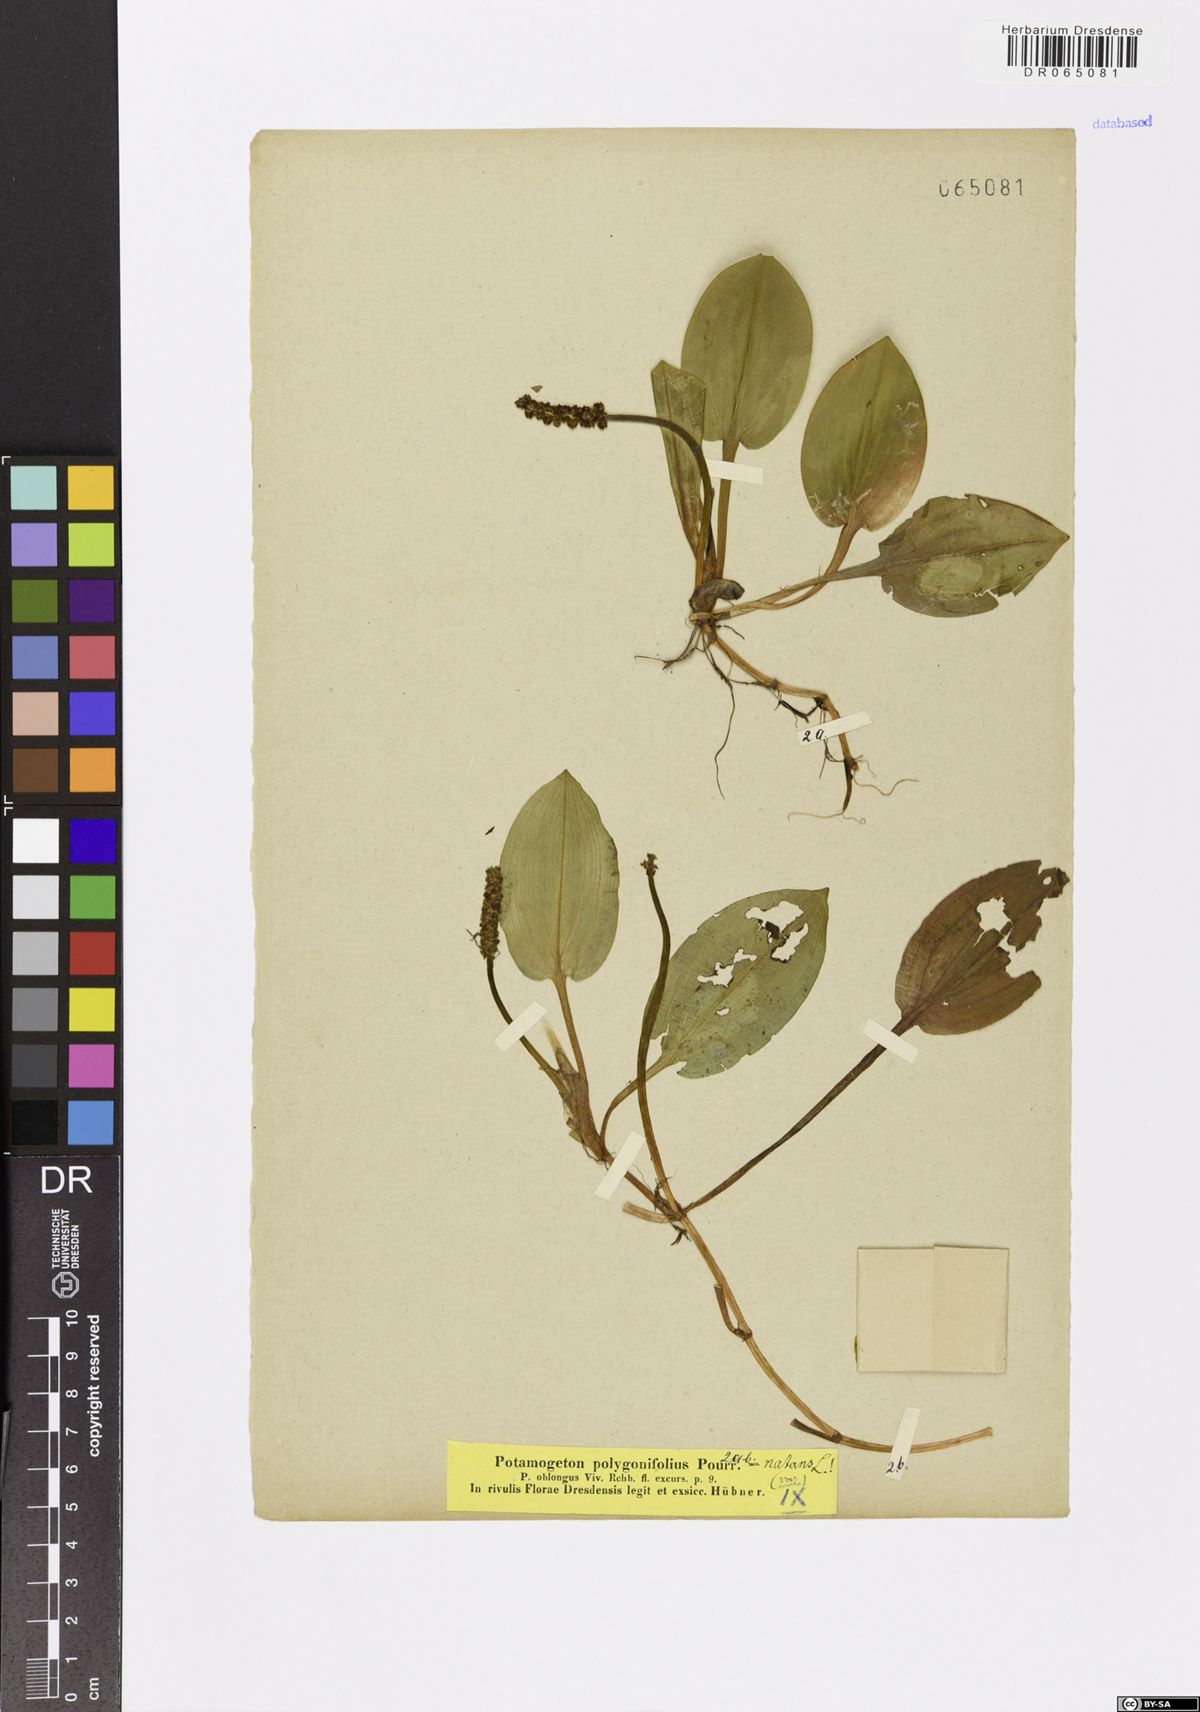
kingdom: Plantae
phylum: Tracheophyta
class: Liliopsida
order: Alismatales
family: Potamogetonaceae
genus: Potamogeton
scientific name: Potamogeton polygonifolius
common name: Bog pondweed
